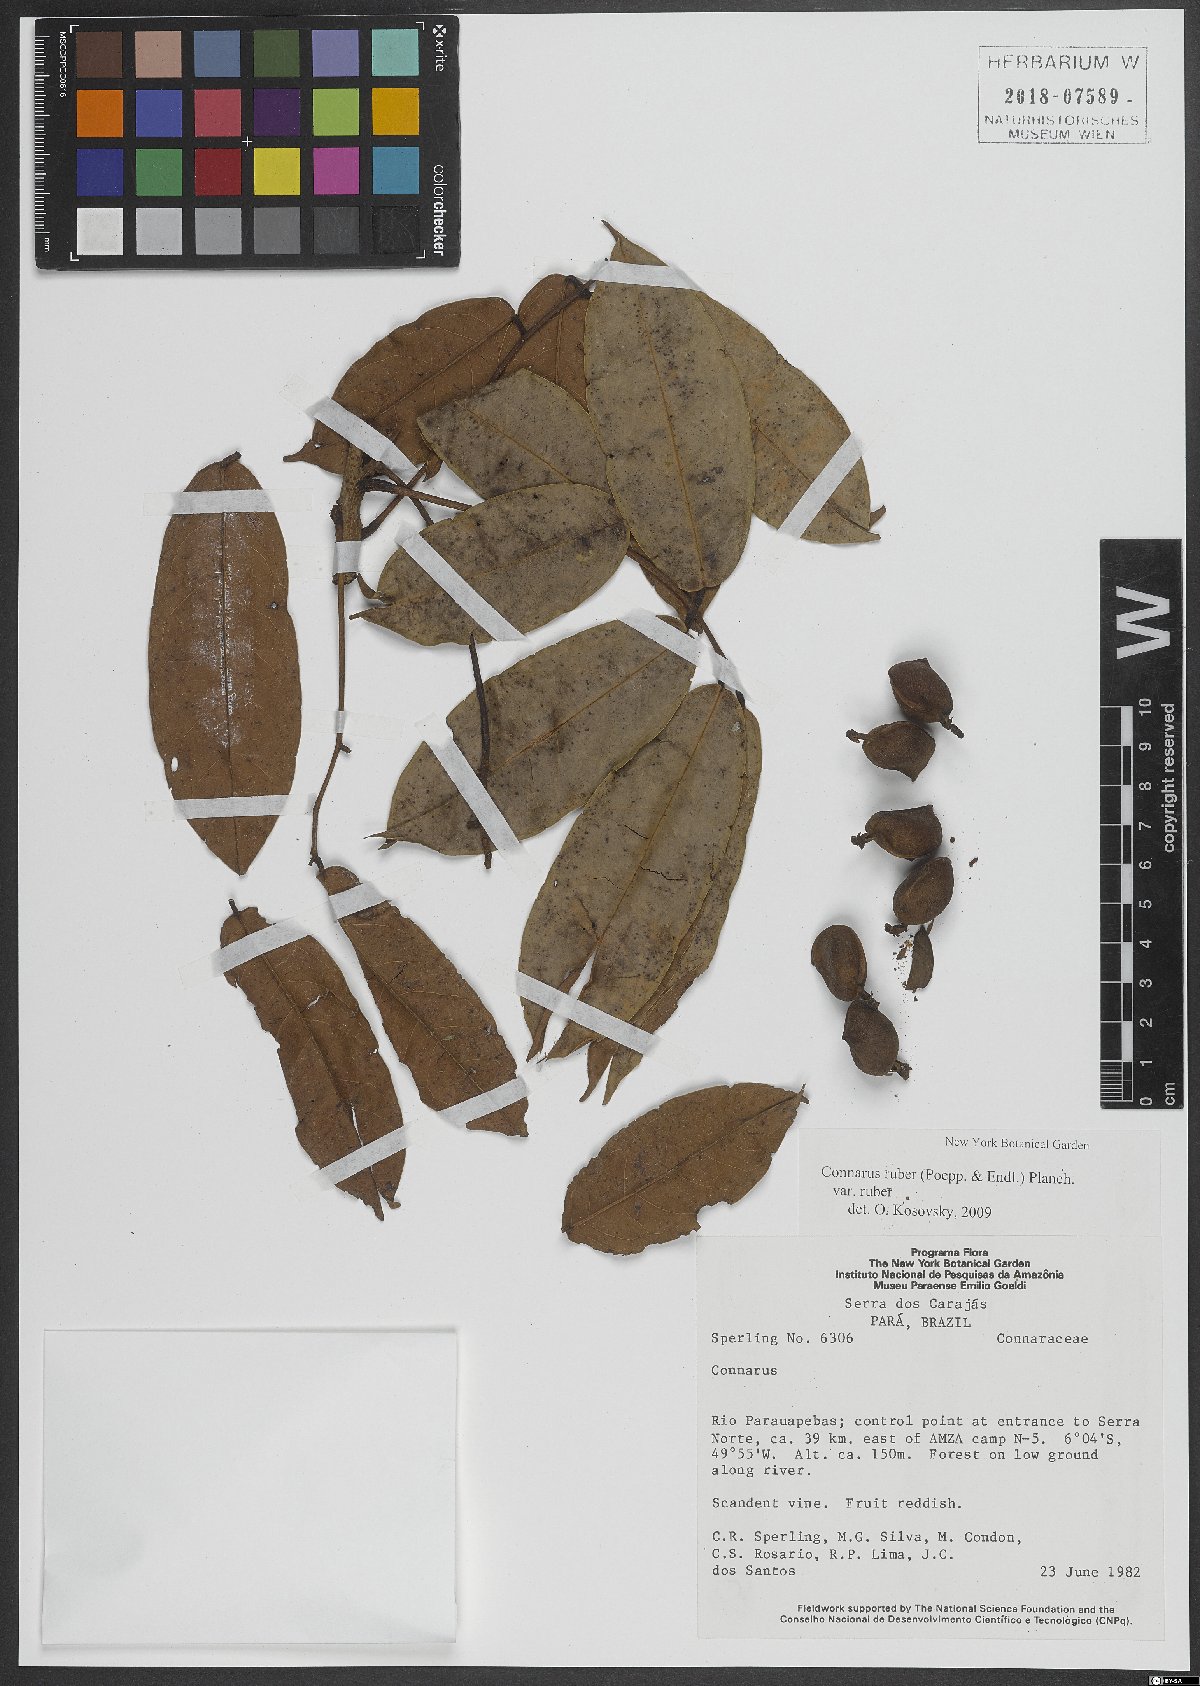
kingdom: Plantae
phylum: Tracheophyta
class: Magnoliopsida
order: Oxalidales
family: Connaraceae
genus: Connarus
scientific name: Connarus ruber
